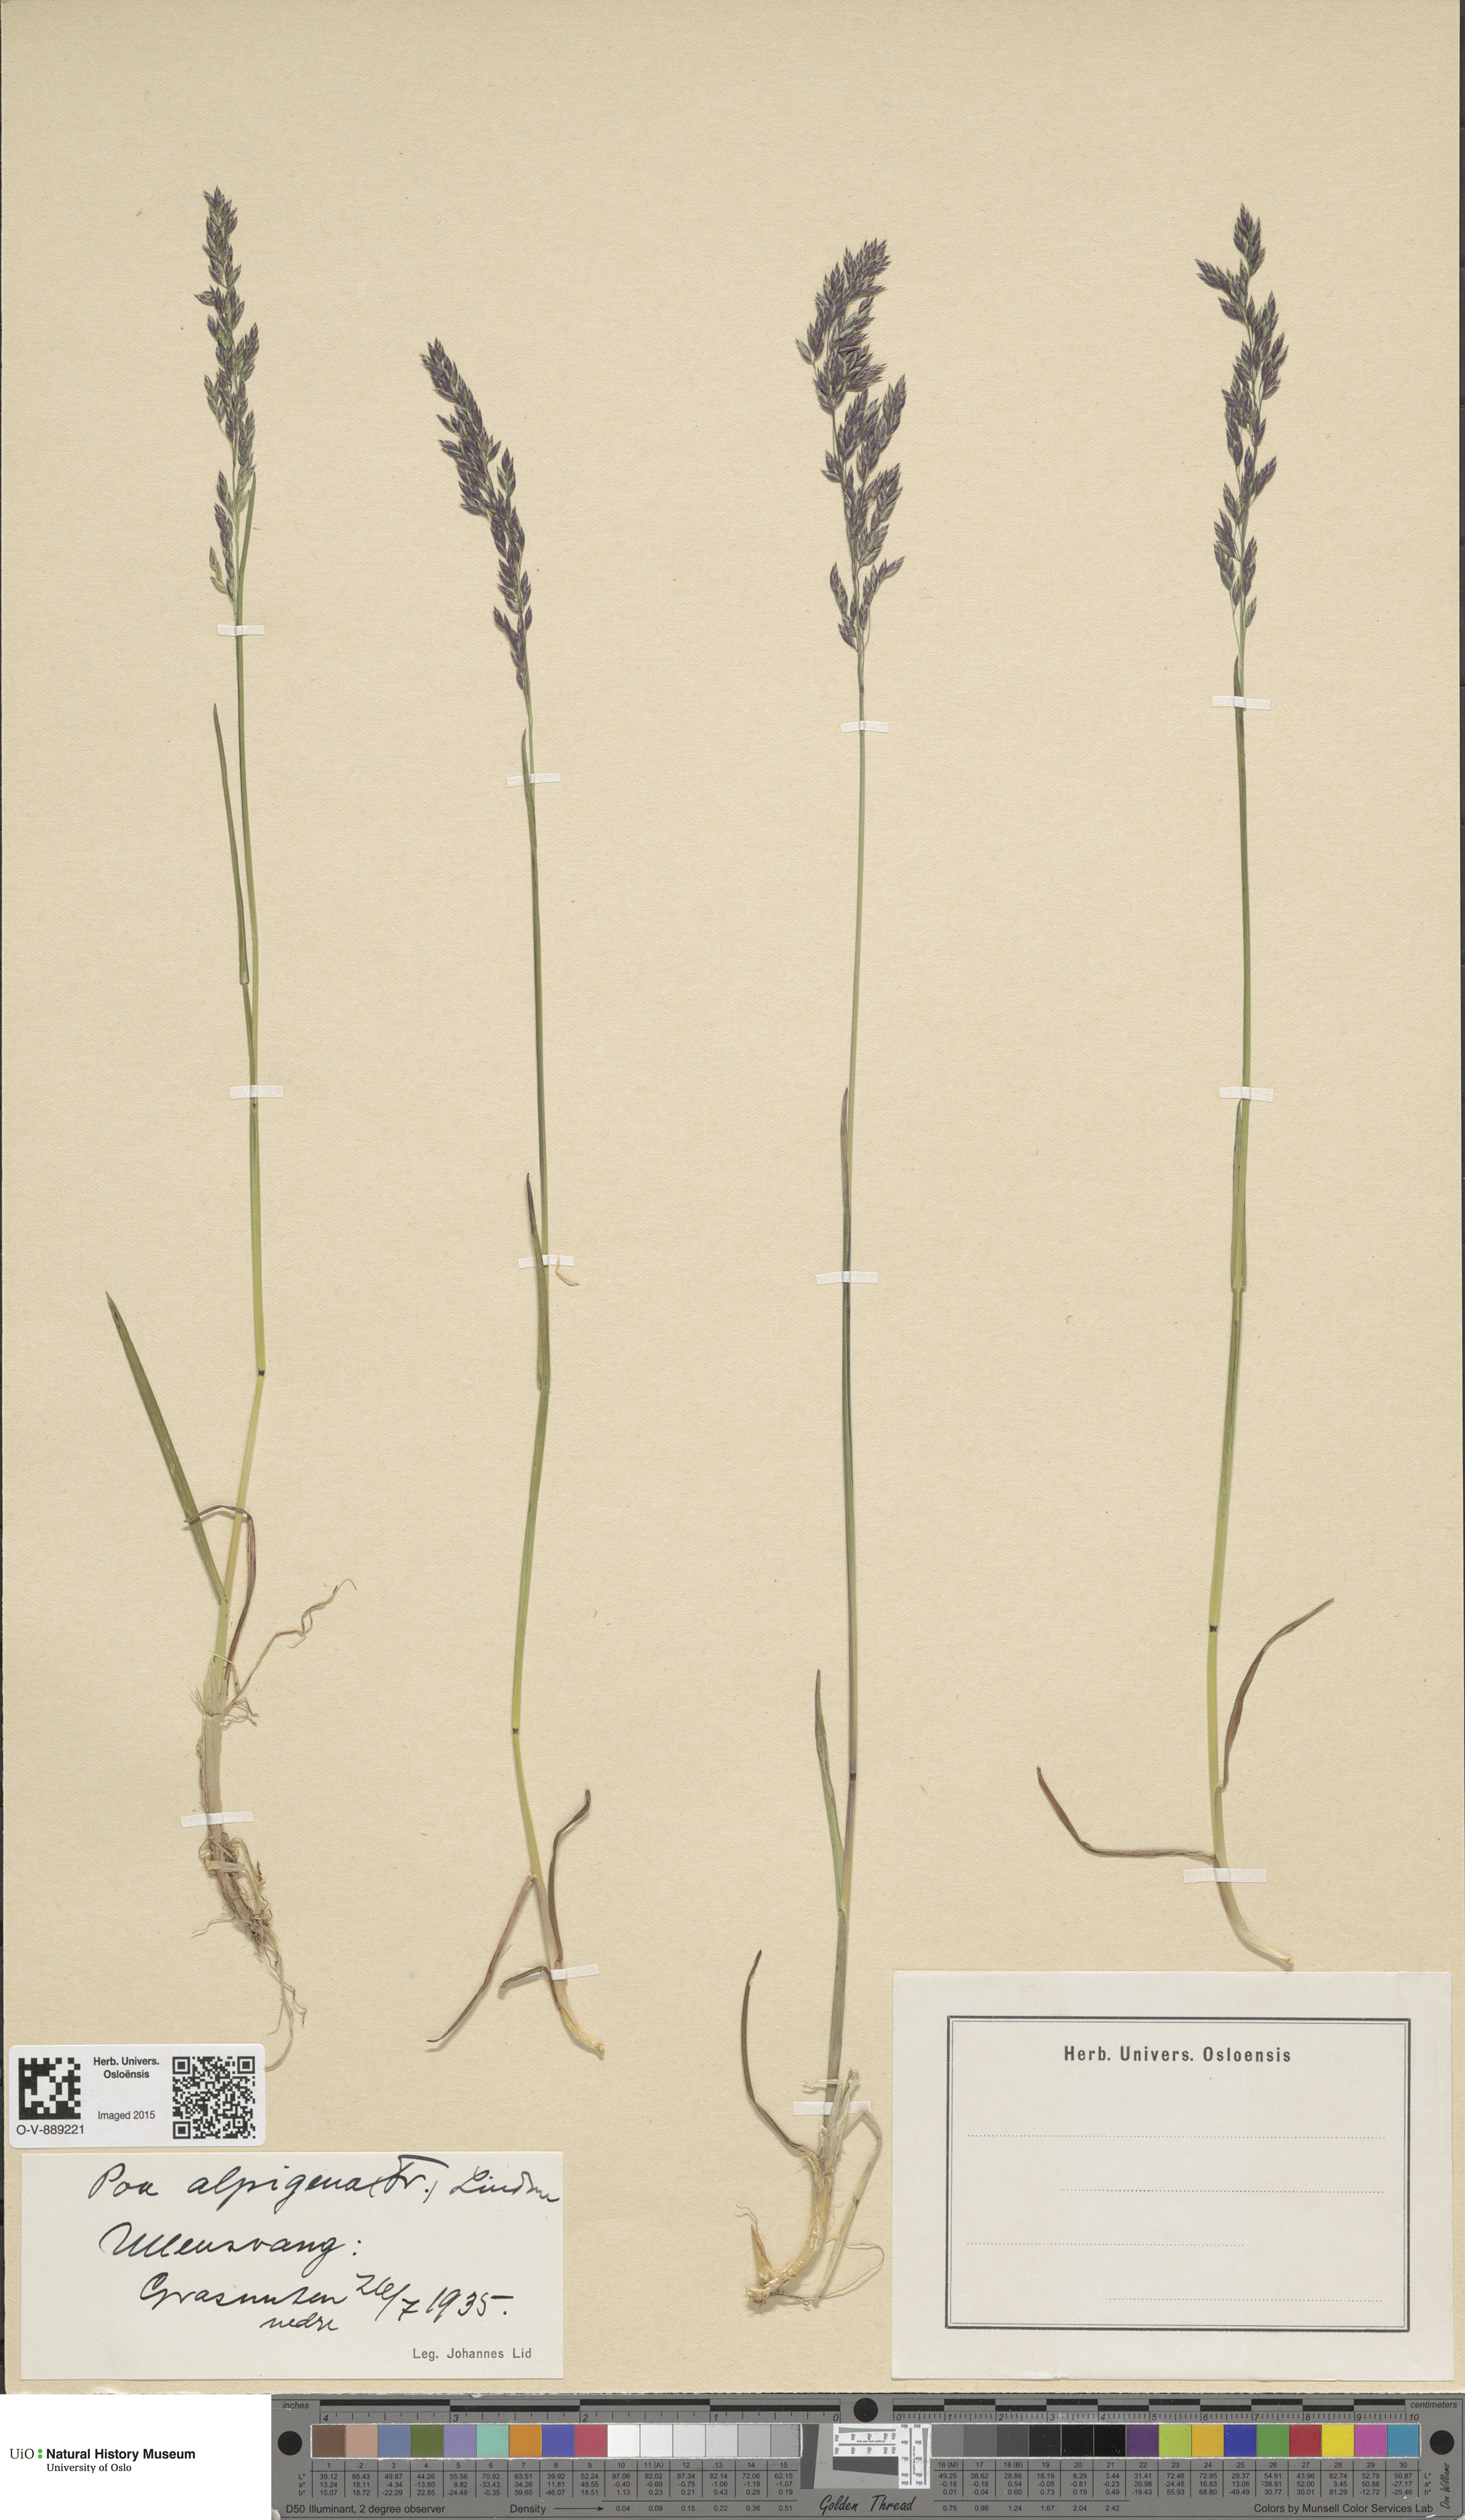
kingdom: Plantae
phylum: Tracheophyta
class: Liliopsida
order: Poales
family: Poaceae
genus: Poa
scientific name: Poa alpigena
